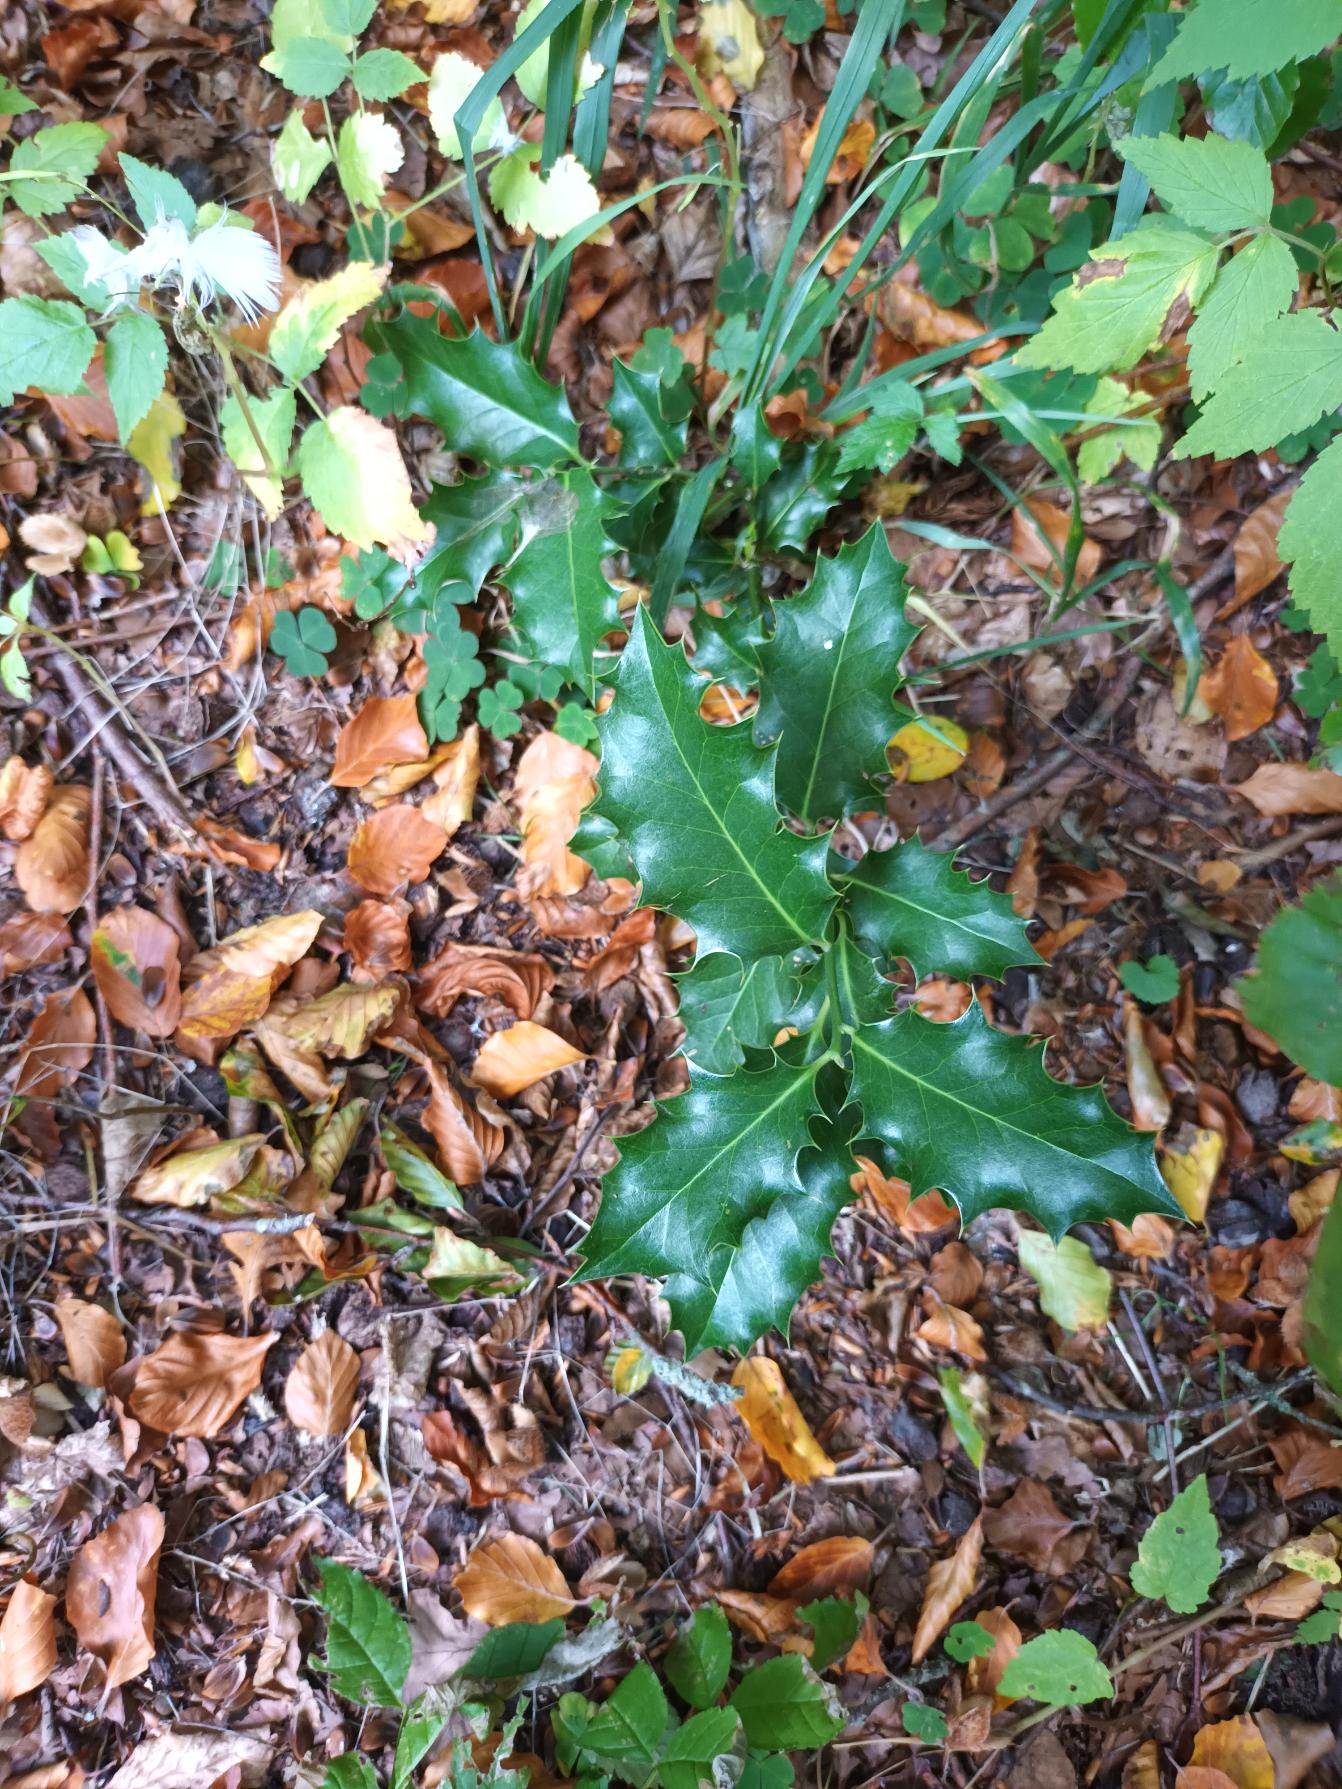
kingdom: Plantae
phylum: Tracheophyta
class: Magnoliopsida
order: Aquifoliales
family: Aquifoliaceae
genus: Ilex
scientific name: Ilex aquifolium
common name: Kristtorn
